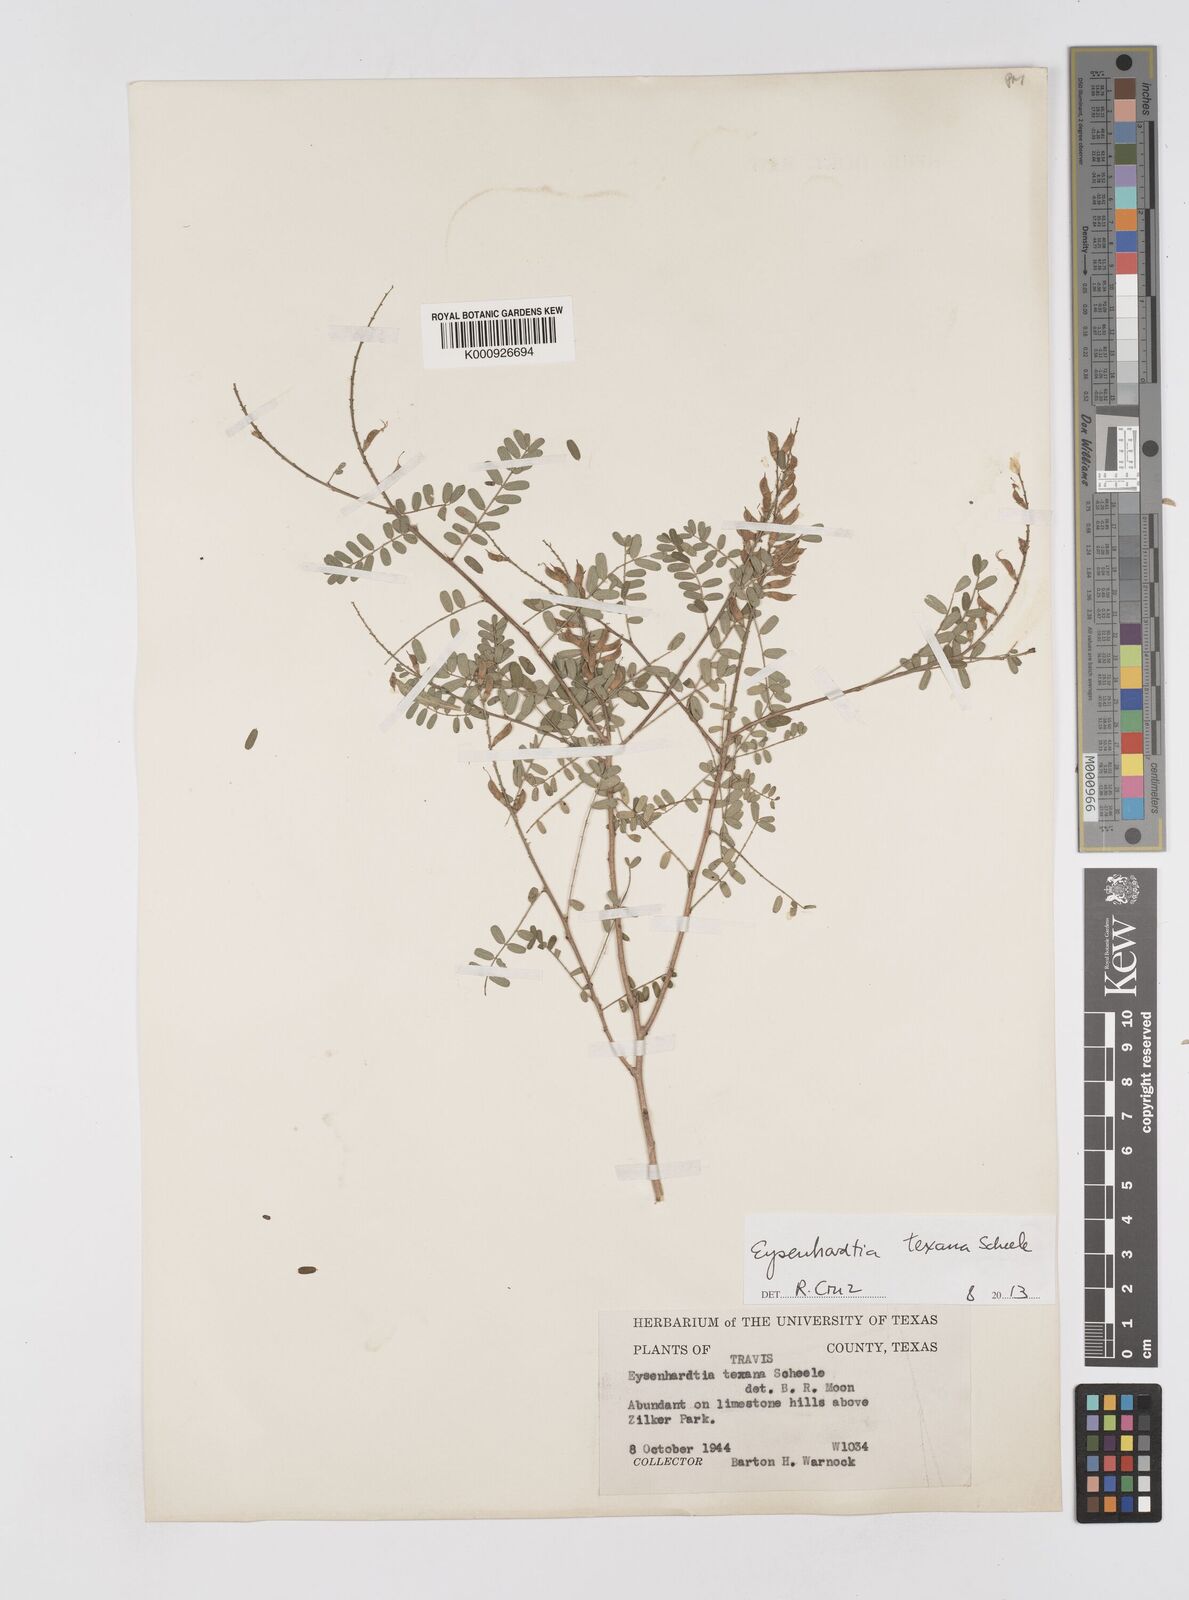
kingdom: Plantae
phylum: Tracheophyta
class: Magnoliopsida
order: Fabales
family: Fabaceae
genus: Eysenhardtia
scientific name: Eysenhardtia texana
